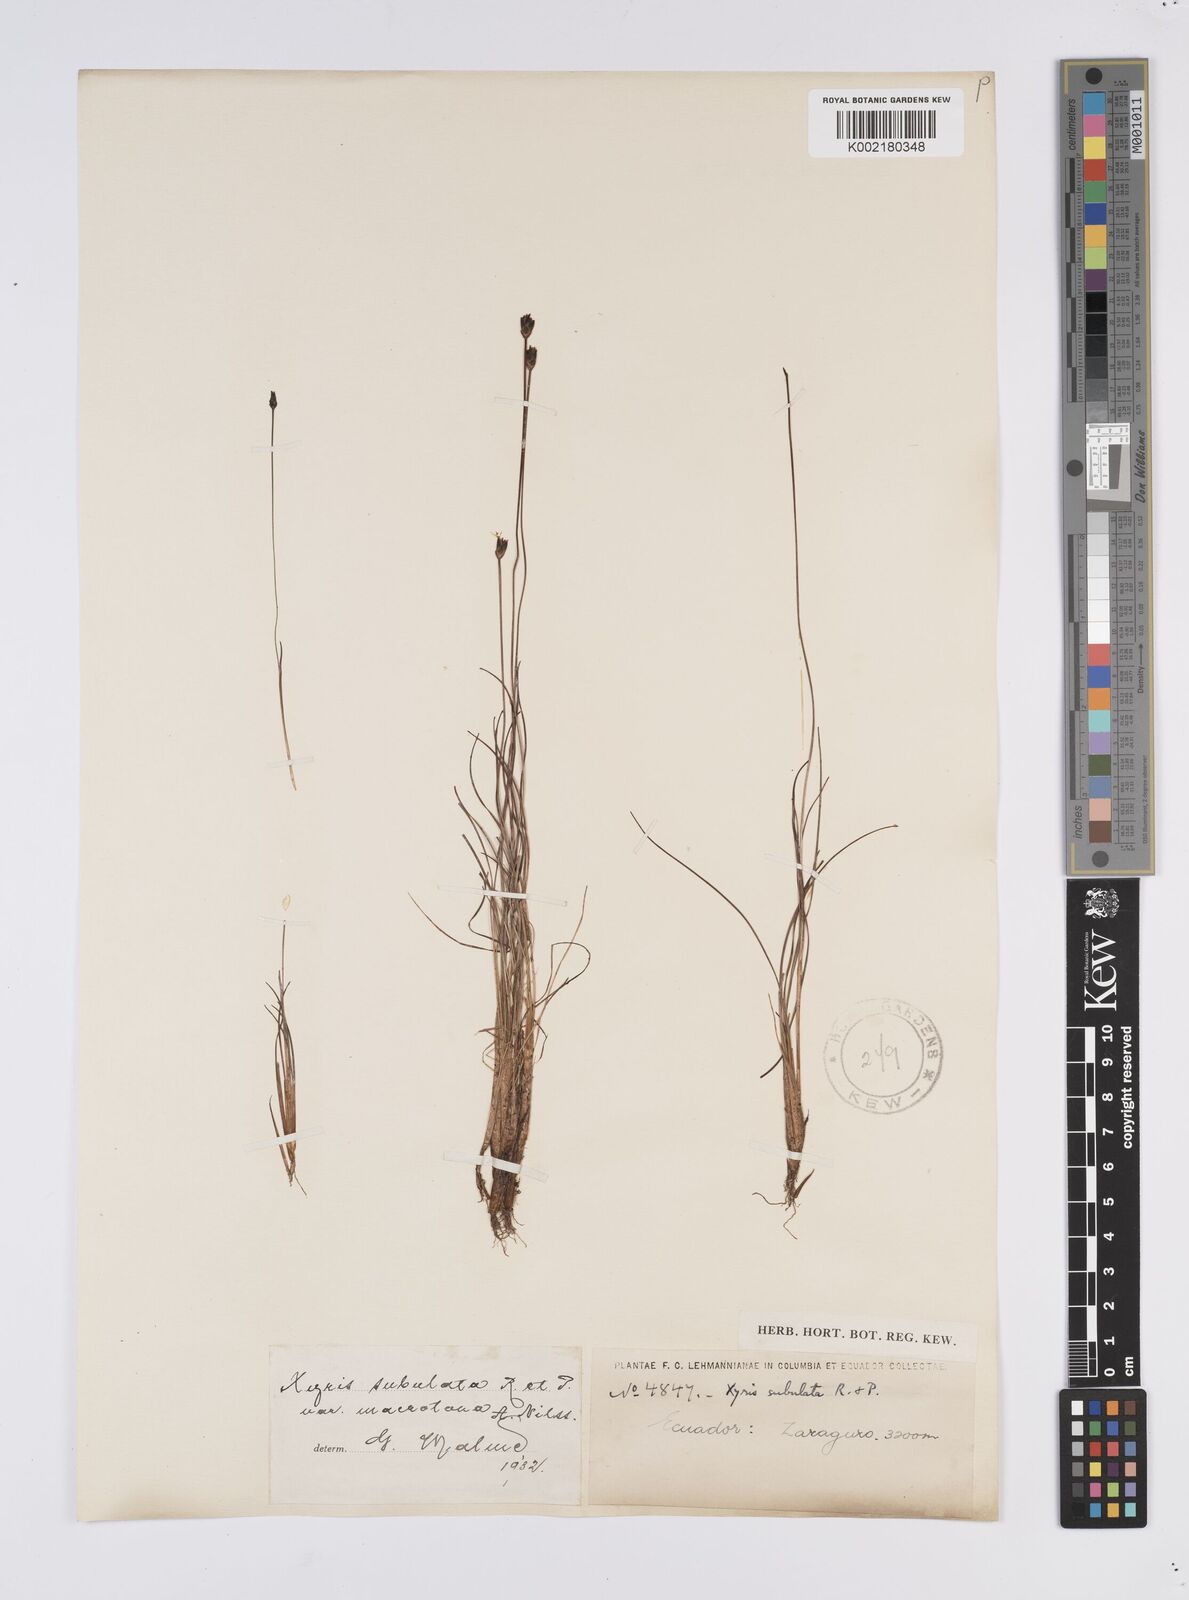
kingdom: Plantae
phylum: Tracheophyta
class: Liliopsida
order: Poales
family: Xyridaceae
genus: Xyris
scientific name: Xyris subulata
